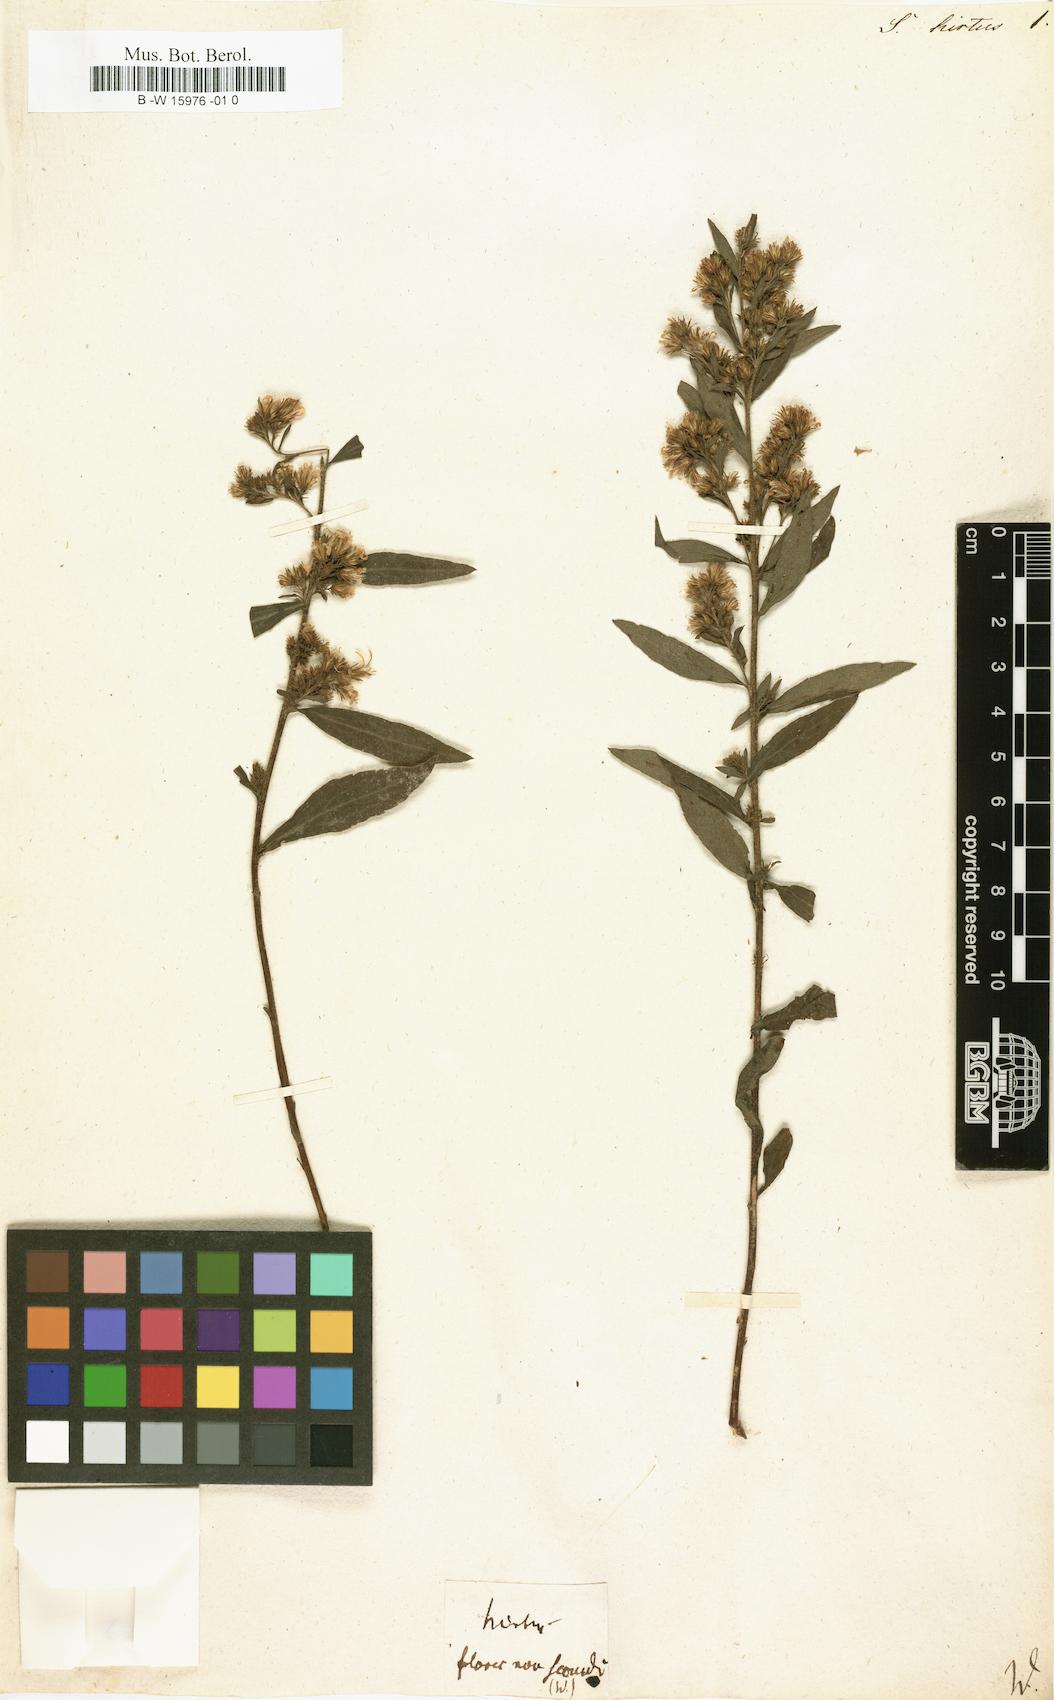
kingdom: Plantae
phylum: Tracheophyta
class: Magnoliopsida
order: Asterales
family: Asteraceae
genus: Solidago
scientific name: Solidago rugosa
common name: Rough-stemmed goldenrod
